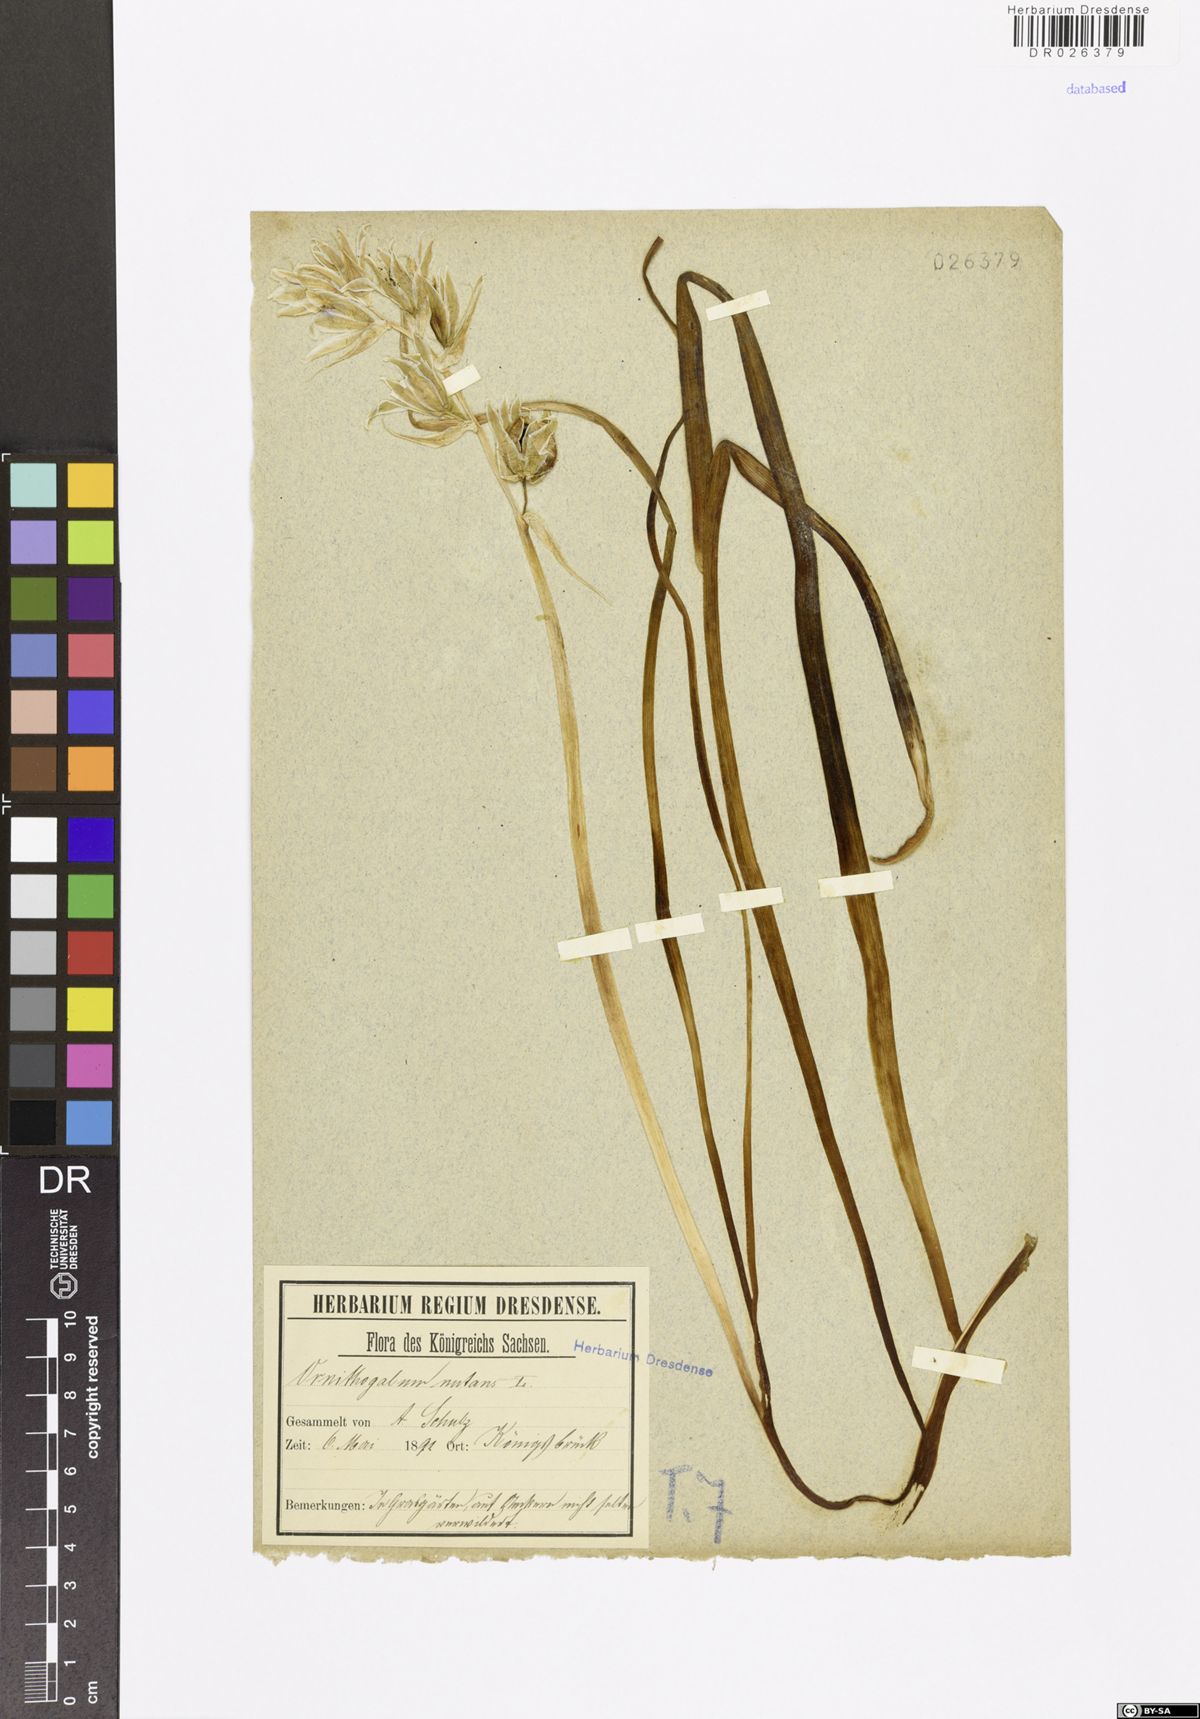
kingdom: Plantae
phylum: Tracheophyta
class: Liliopsida
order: Asparagales
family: Asparagaceae
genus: Ornithogalum
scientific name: Ornithogalum nutans
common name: Drooping star-of-bethlehem
